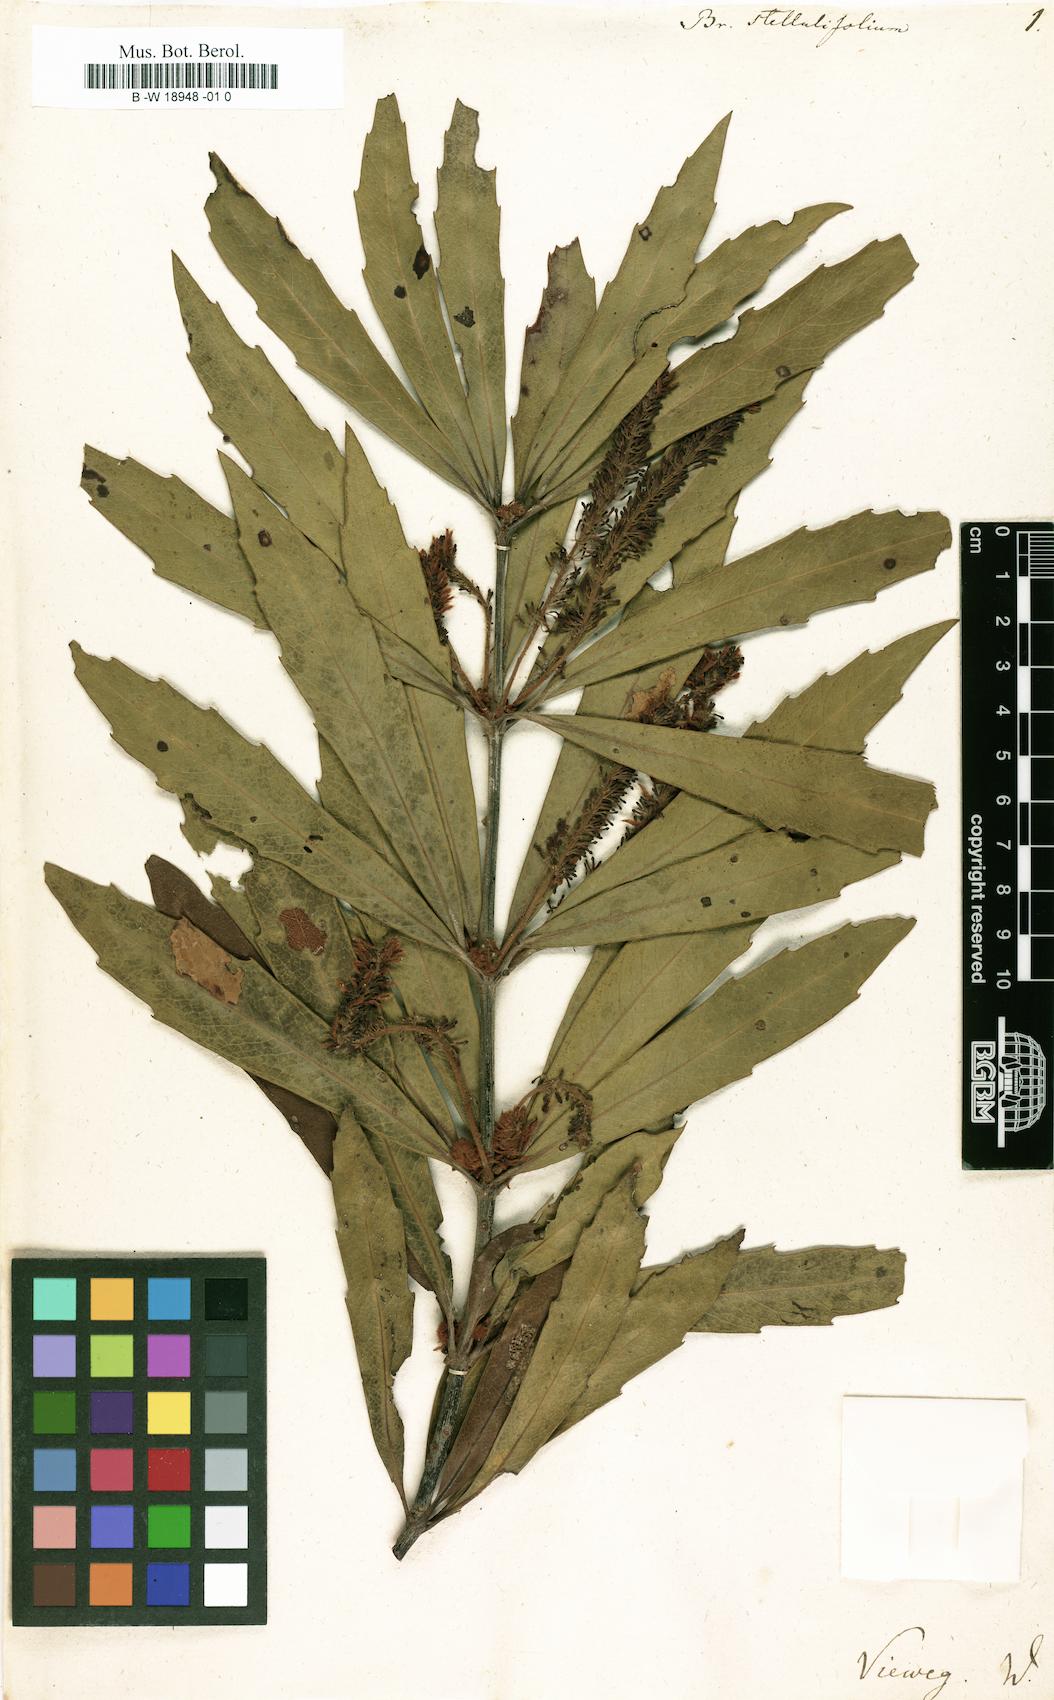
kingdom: Plantae
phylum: Tracheophyta
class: Magnoliopsida
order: Proteales
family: Proteaceae
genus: Brabejum
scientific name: Brabejum stellatifolium
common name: Wild almond
